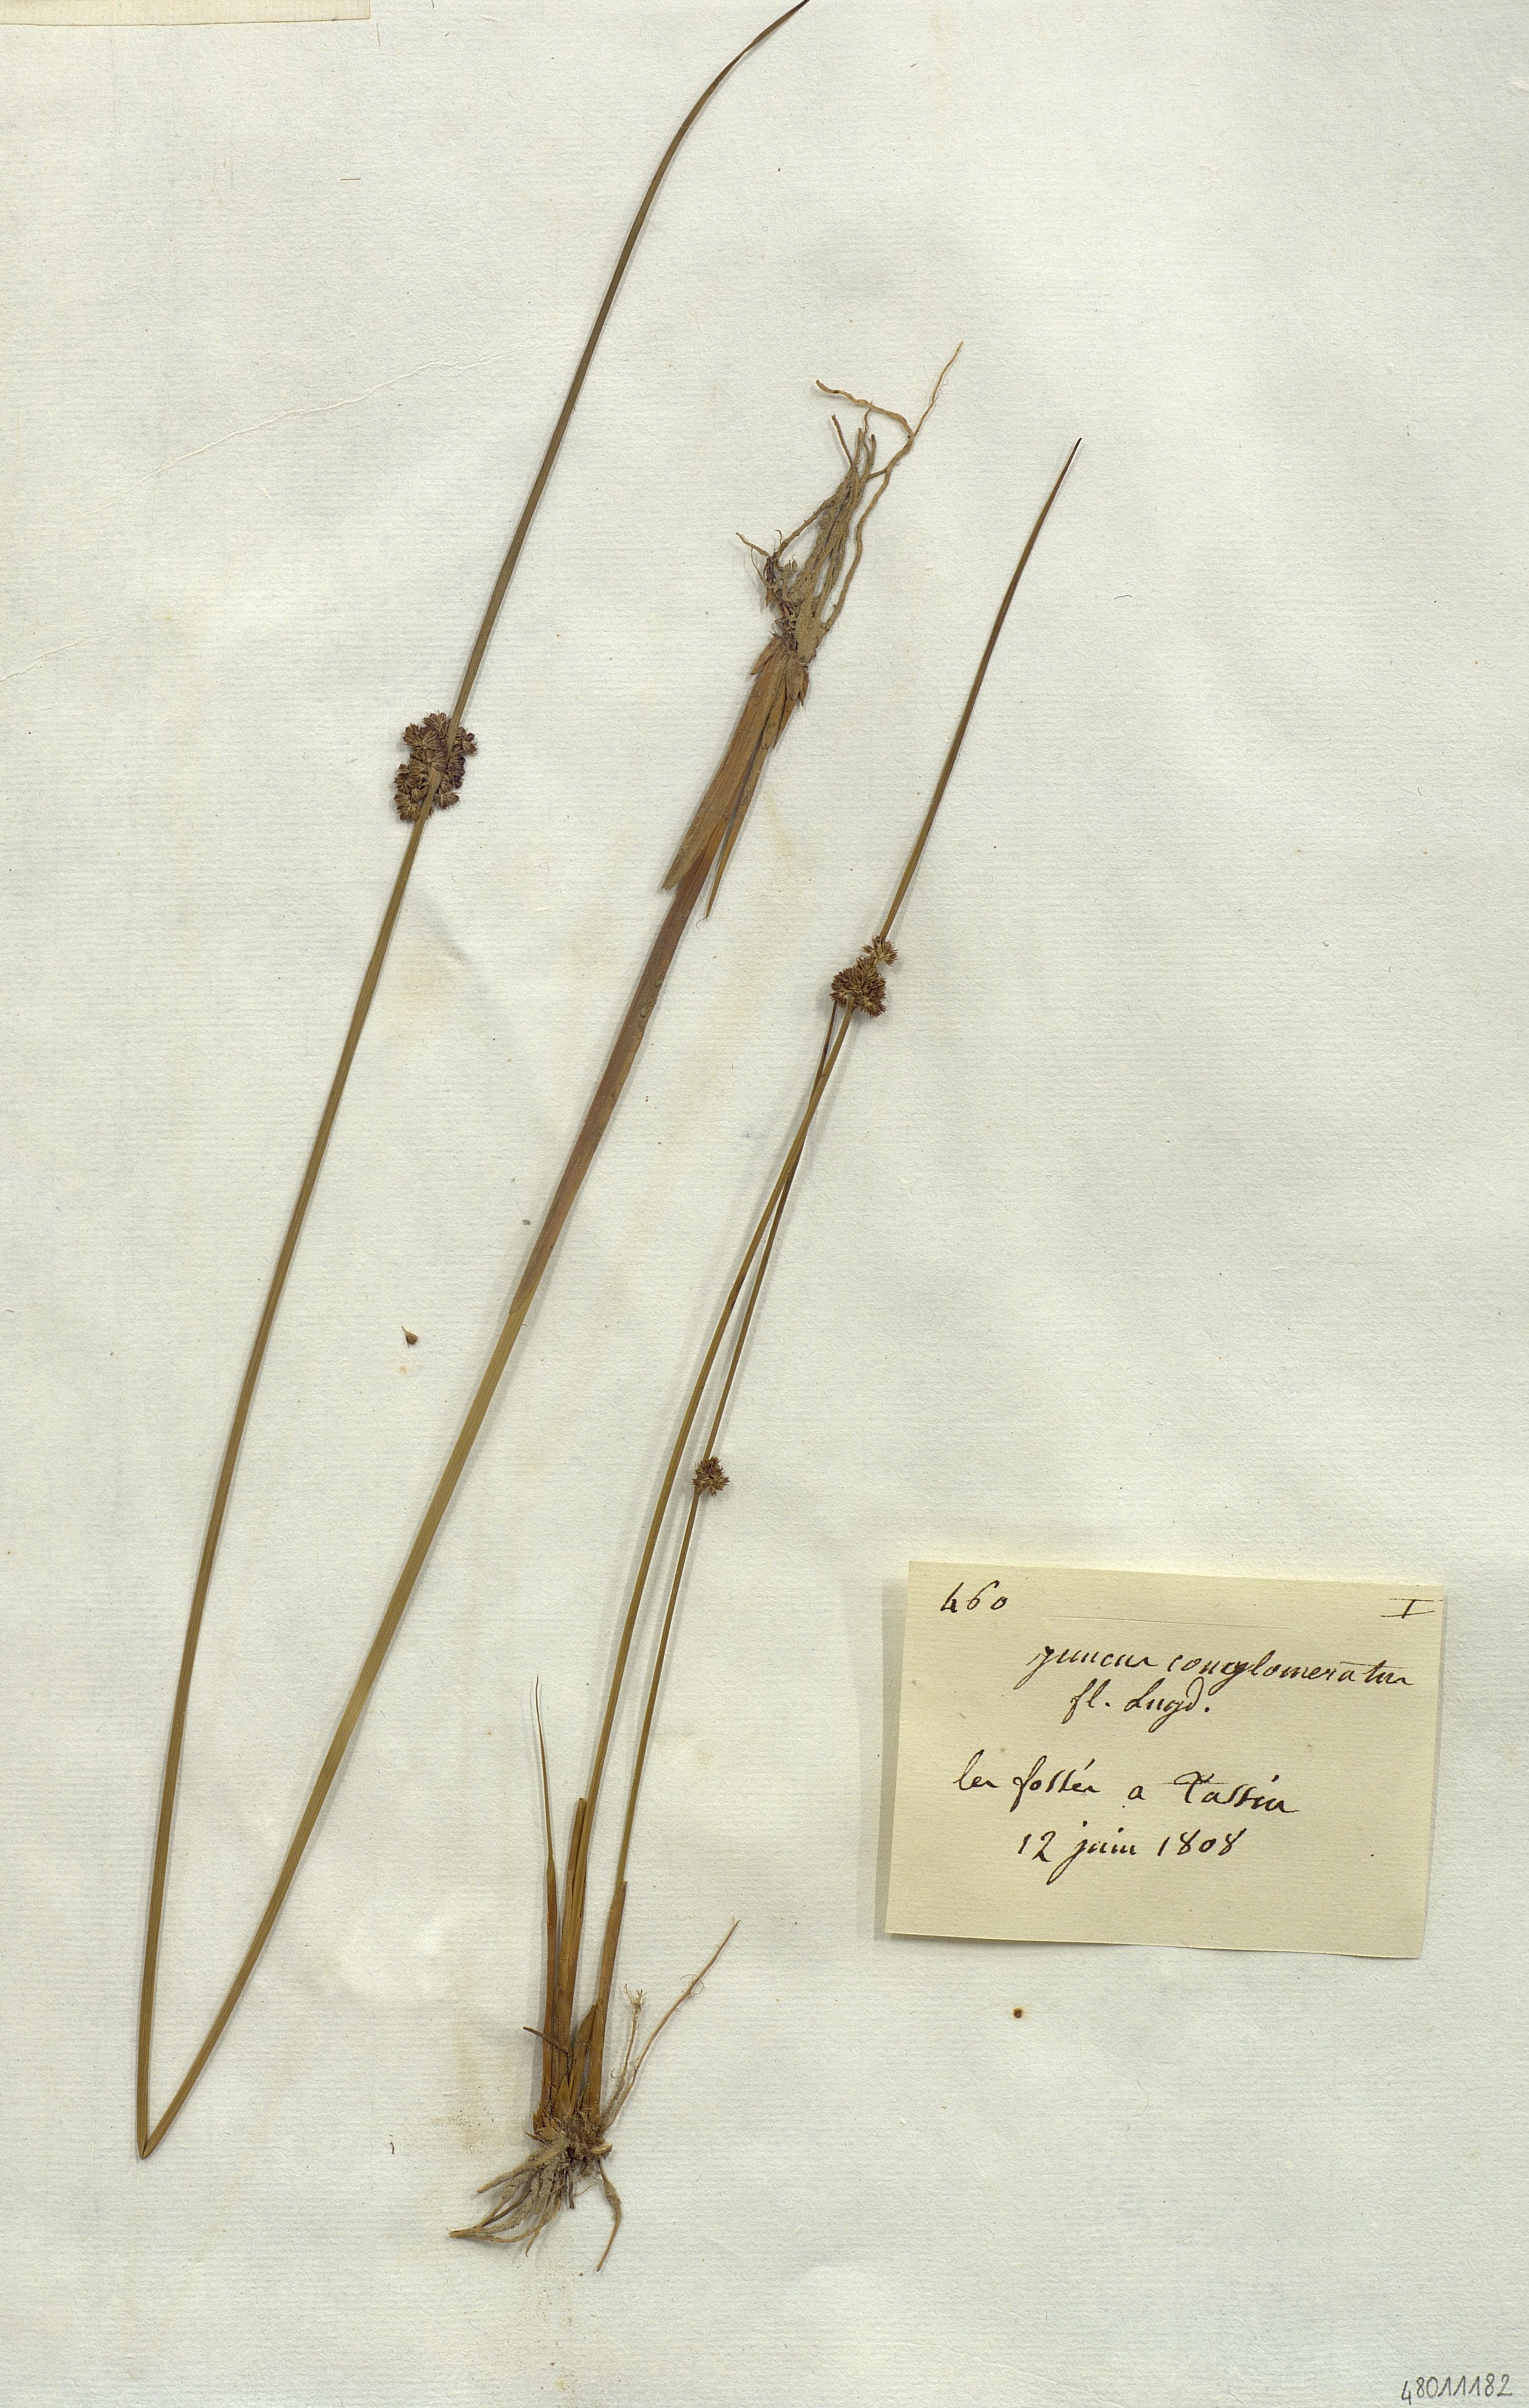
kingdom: Plantae
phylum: Tracheophyta
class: Liliopsida
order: Poales
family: Juncaceae
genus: Juncus
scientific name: Juncus conglomeratus
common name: Compact rush
